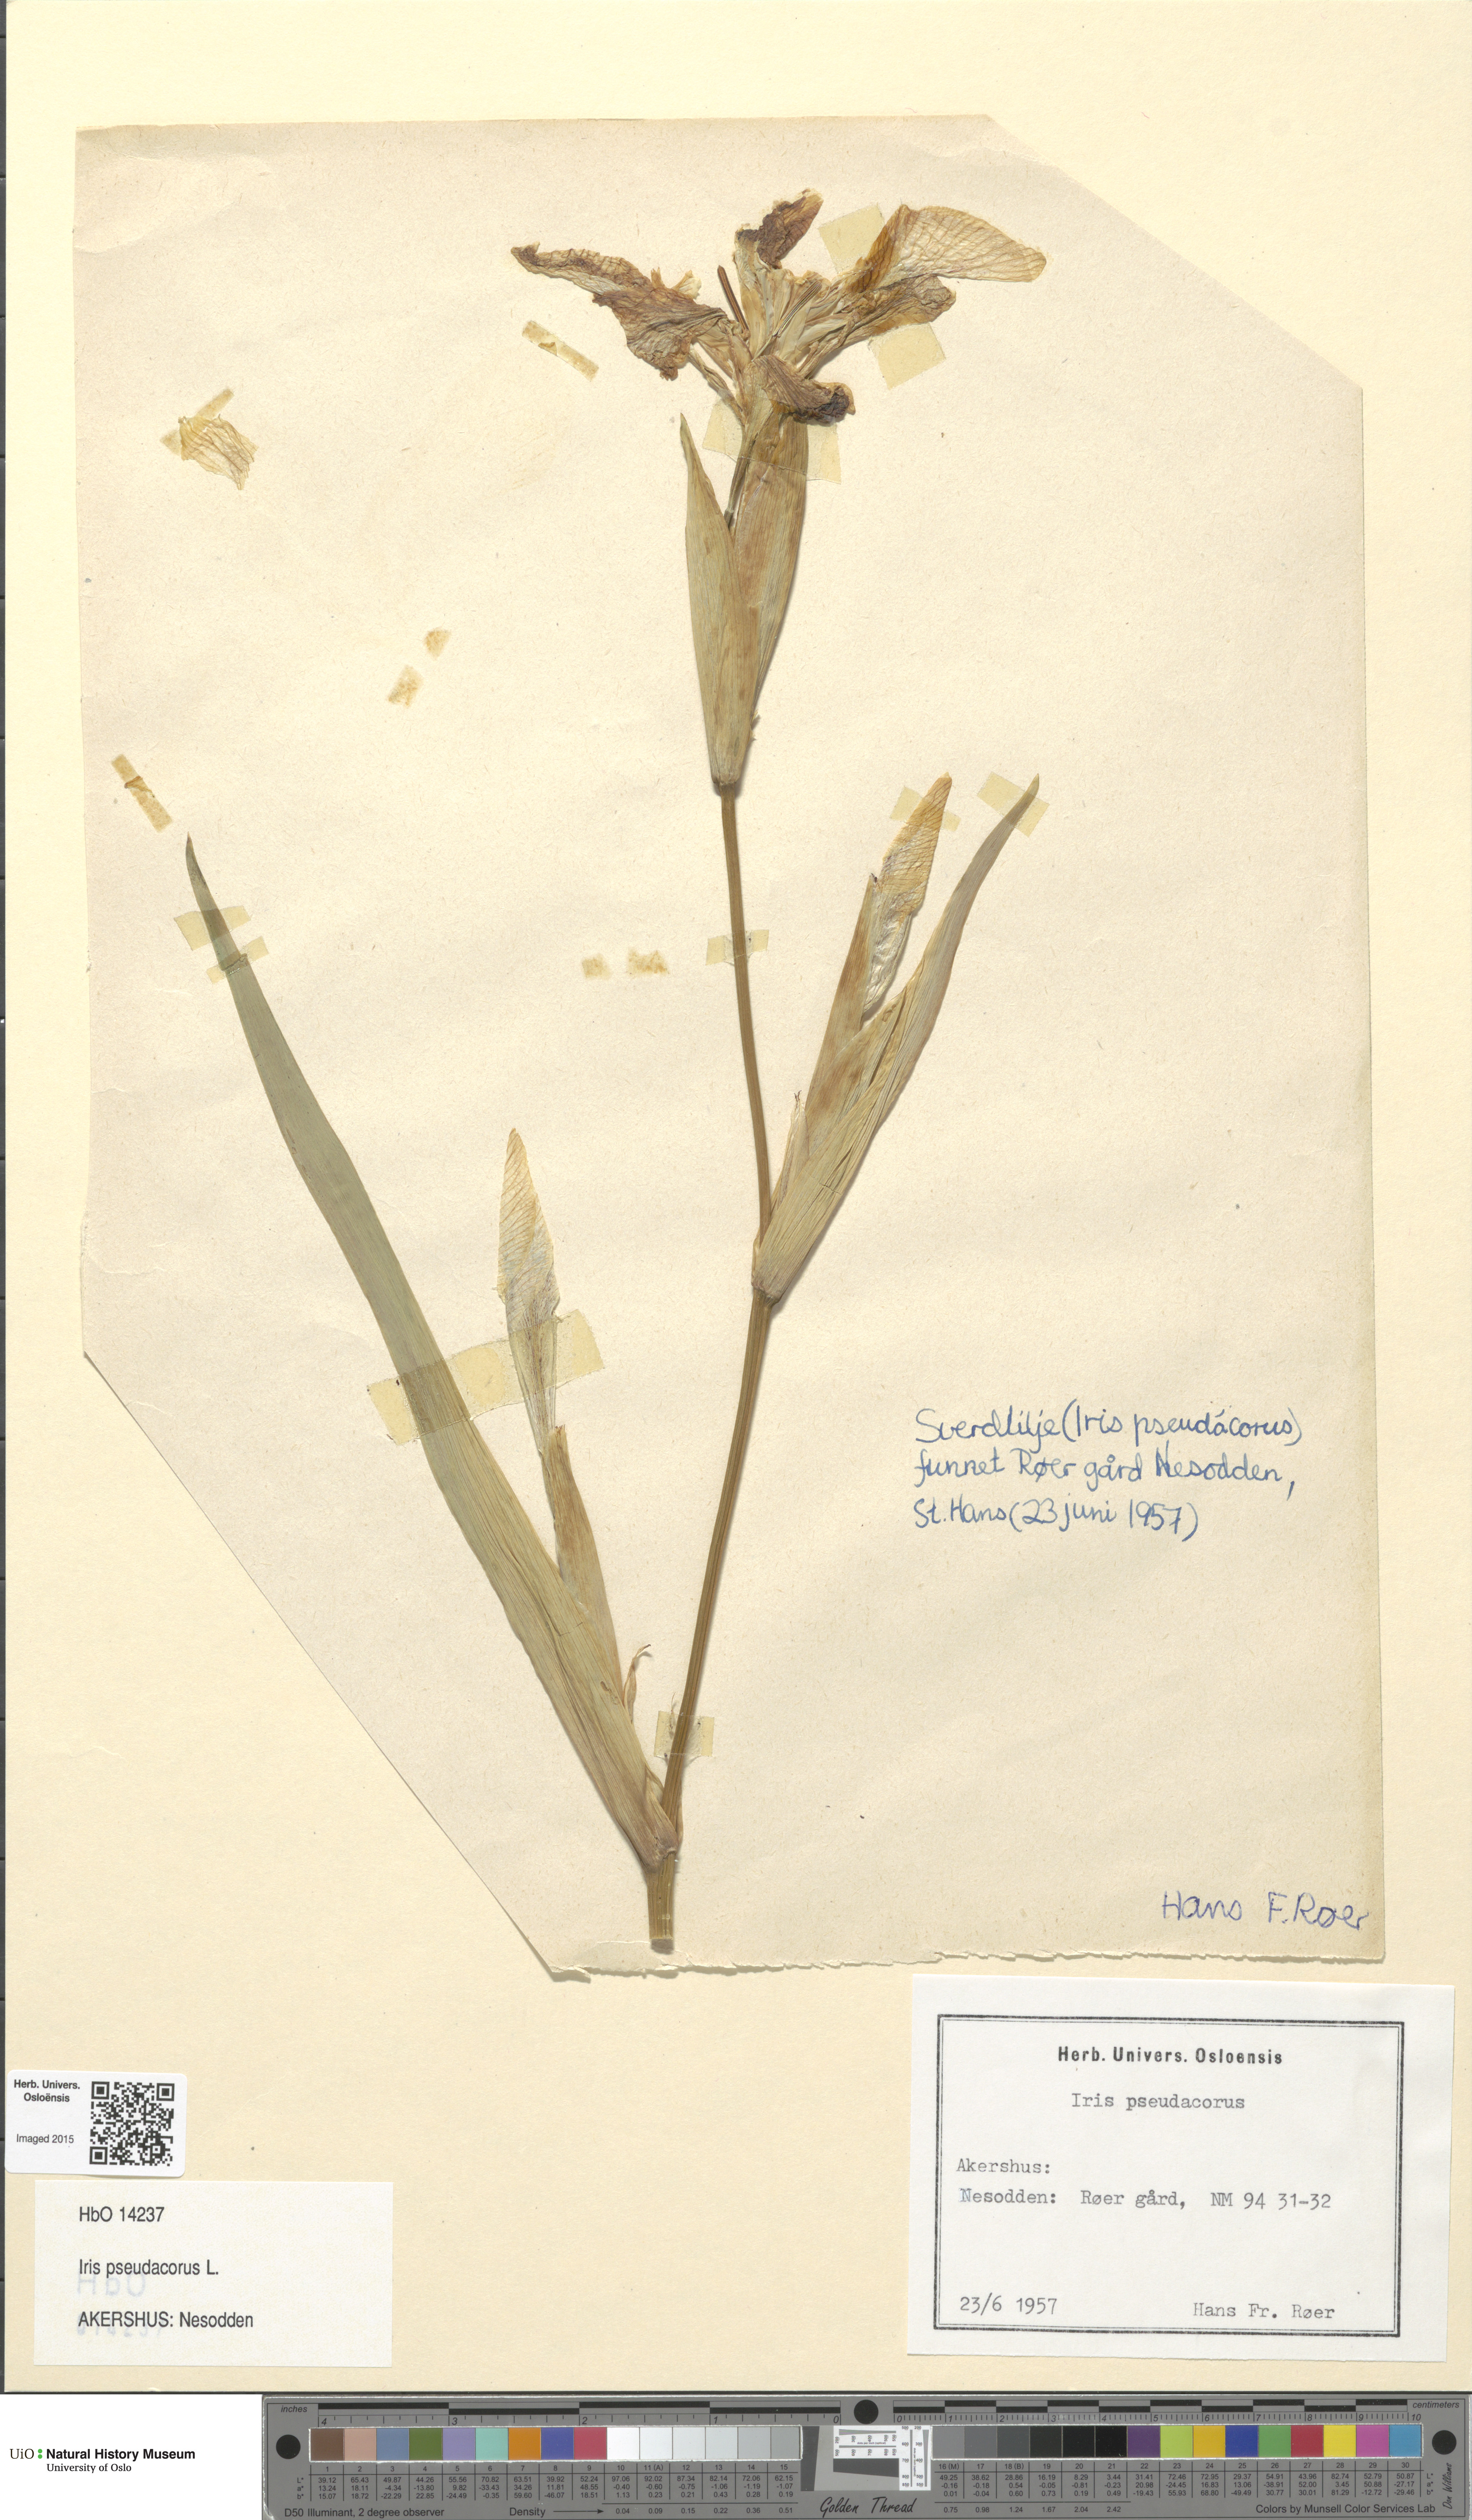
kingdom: Plantae
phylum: Tracheophyta
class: Liliopsida
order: Asparagales
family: Iridaceae
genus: Iris
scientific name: Iris pseudacorus
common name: Yellow flag
